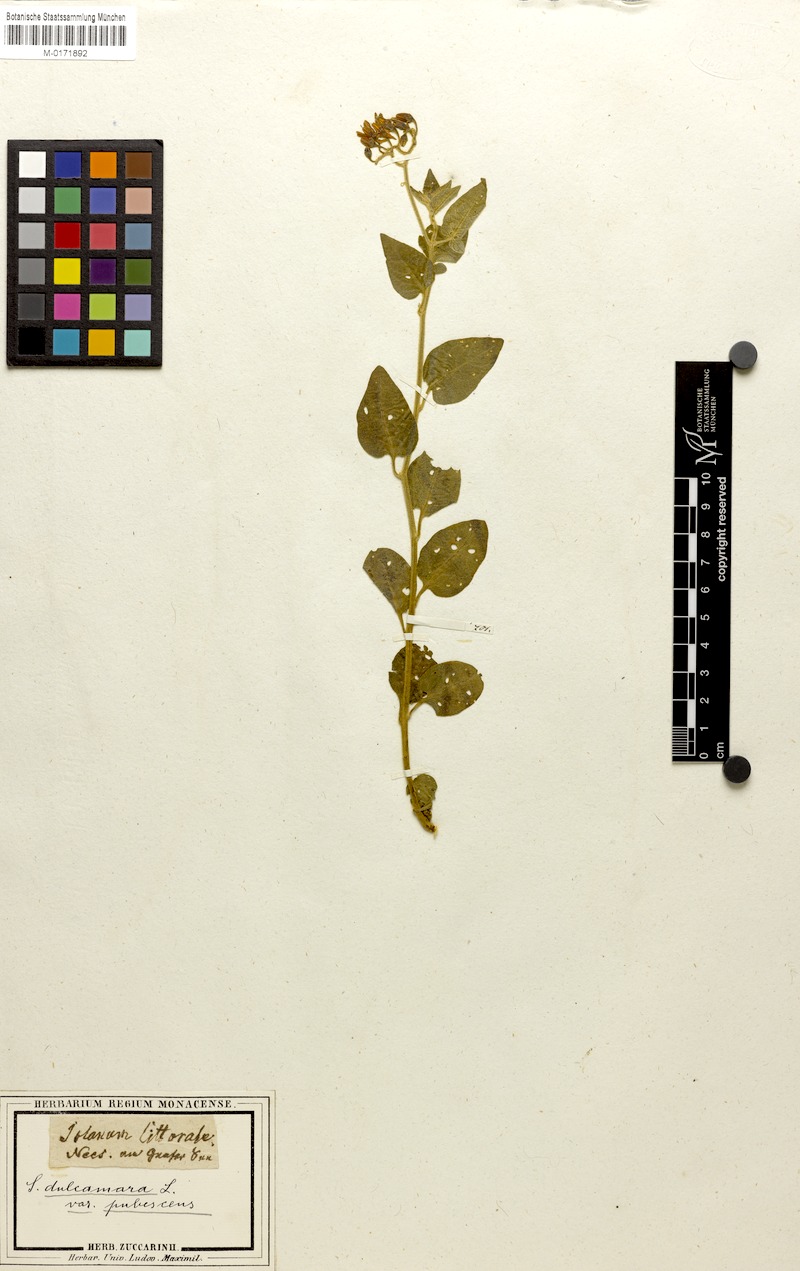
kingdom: Plantae
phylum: Tracheophyta
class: Magnoliopsida
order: Solanales
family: Solanaceae
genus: Solanum
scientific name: Solanum dulcamara
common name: Climbing nightshade
